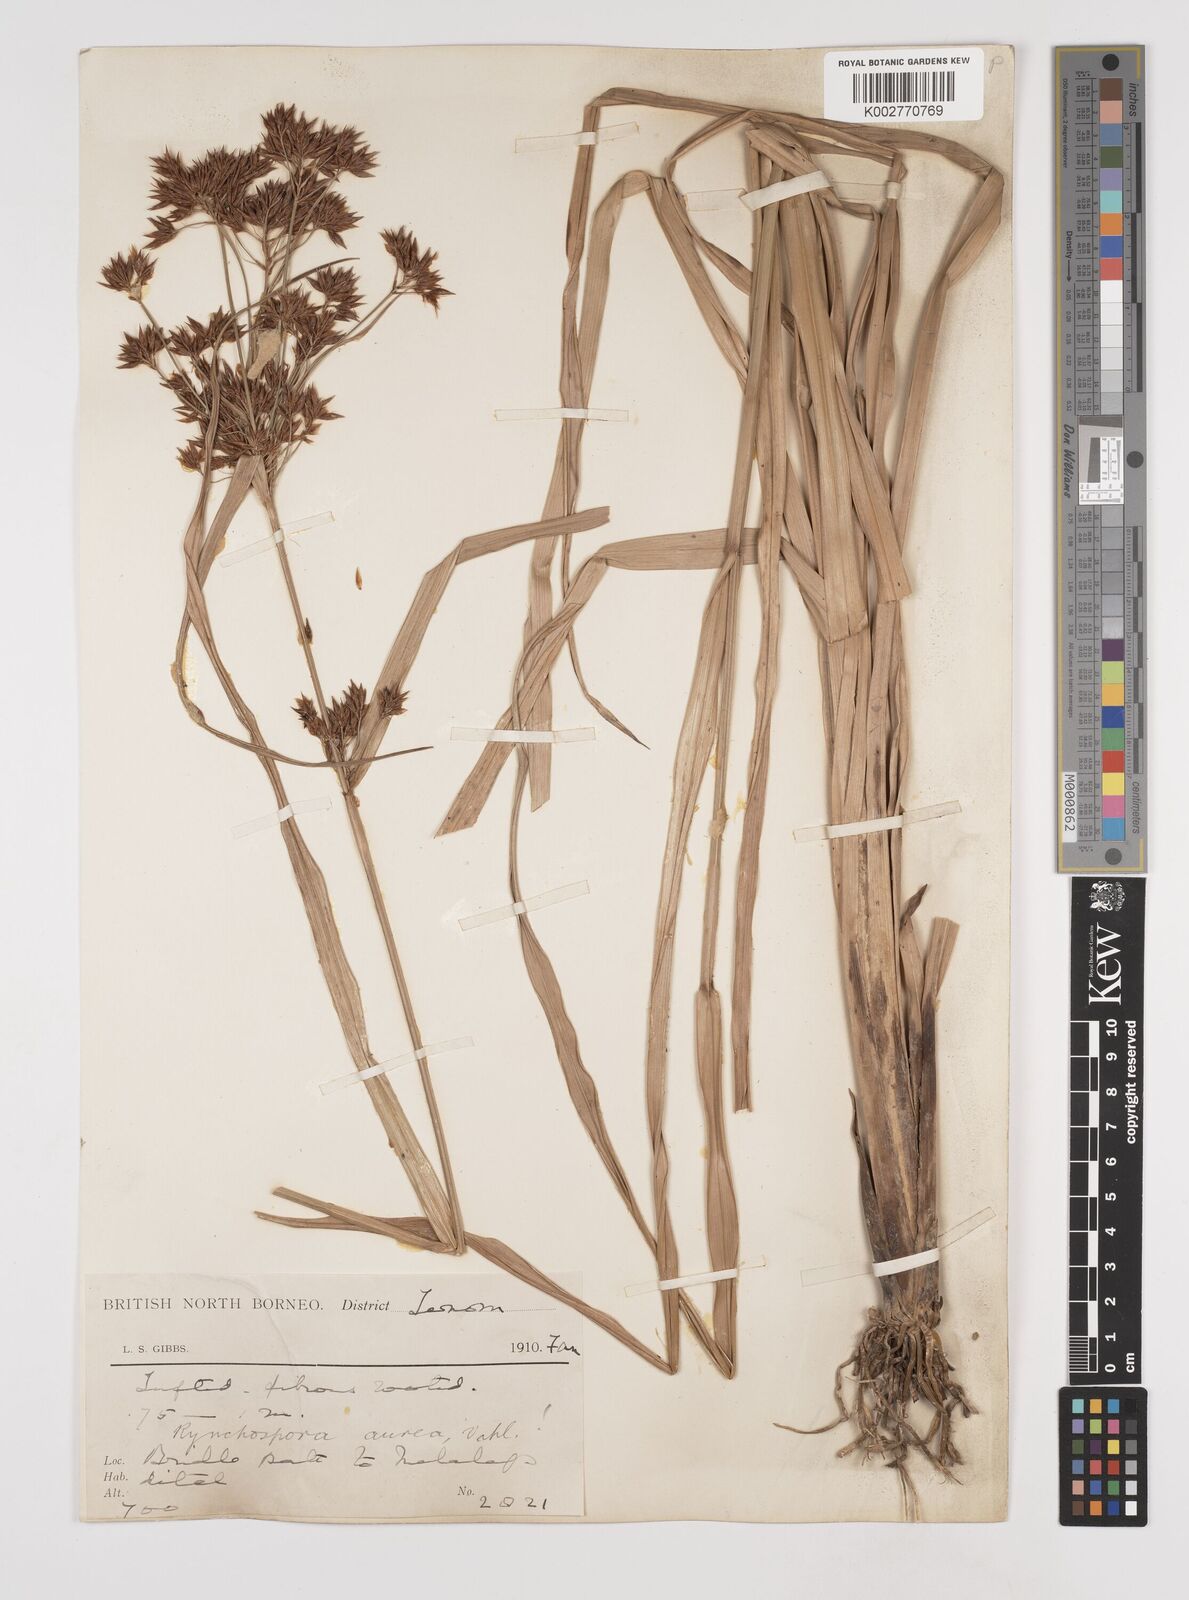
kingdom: Plantae
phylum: Tracheophyta
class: Liliopsida
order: Poales
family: Cyperaceae
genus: Rhynchospora
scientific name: Rhynchospora corymbosa
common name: Golden beak sedge
